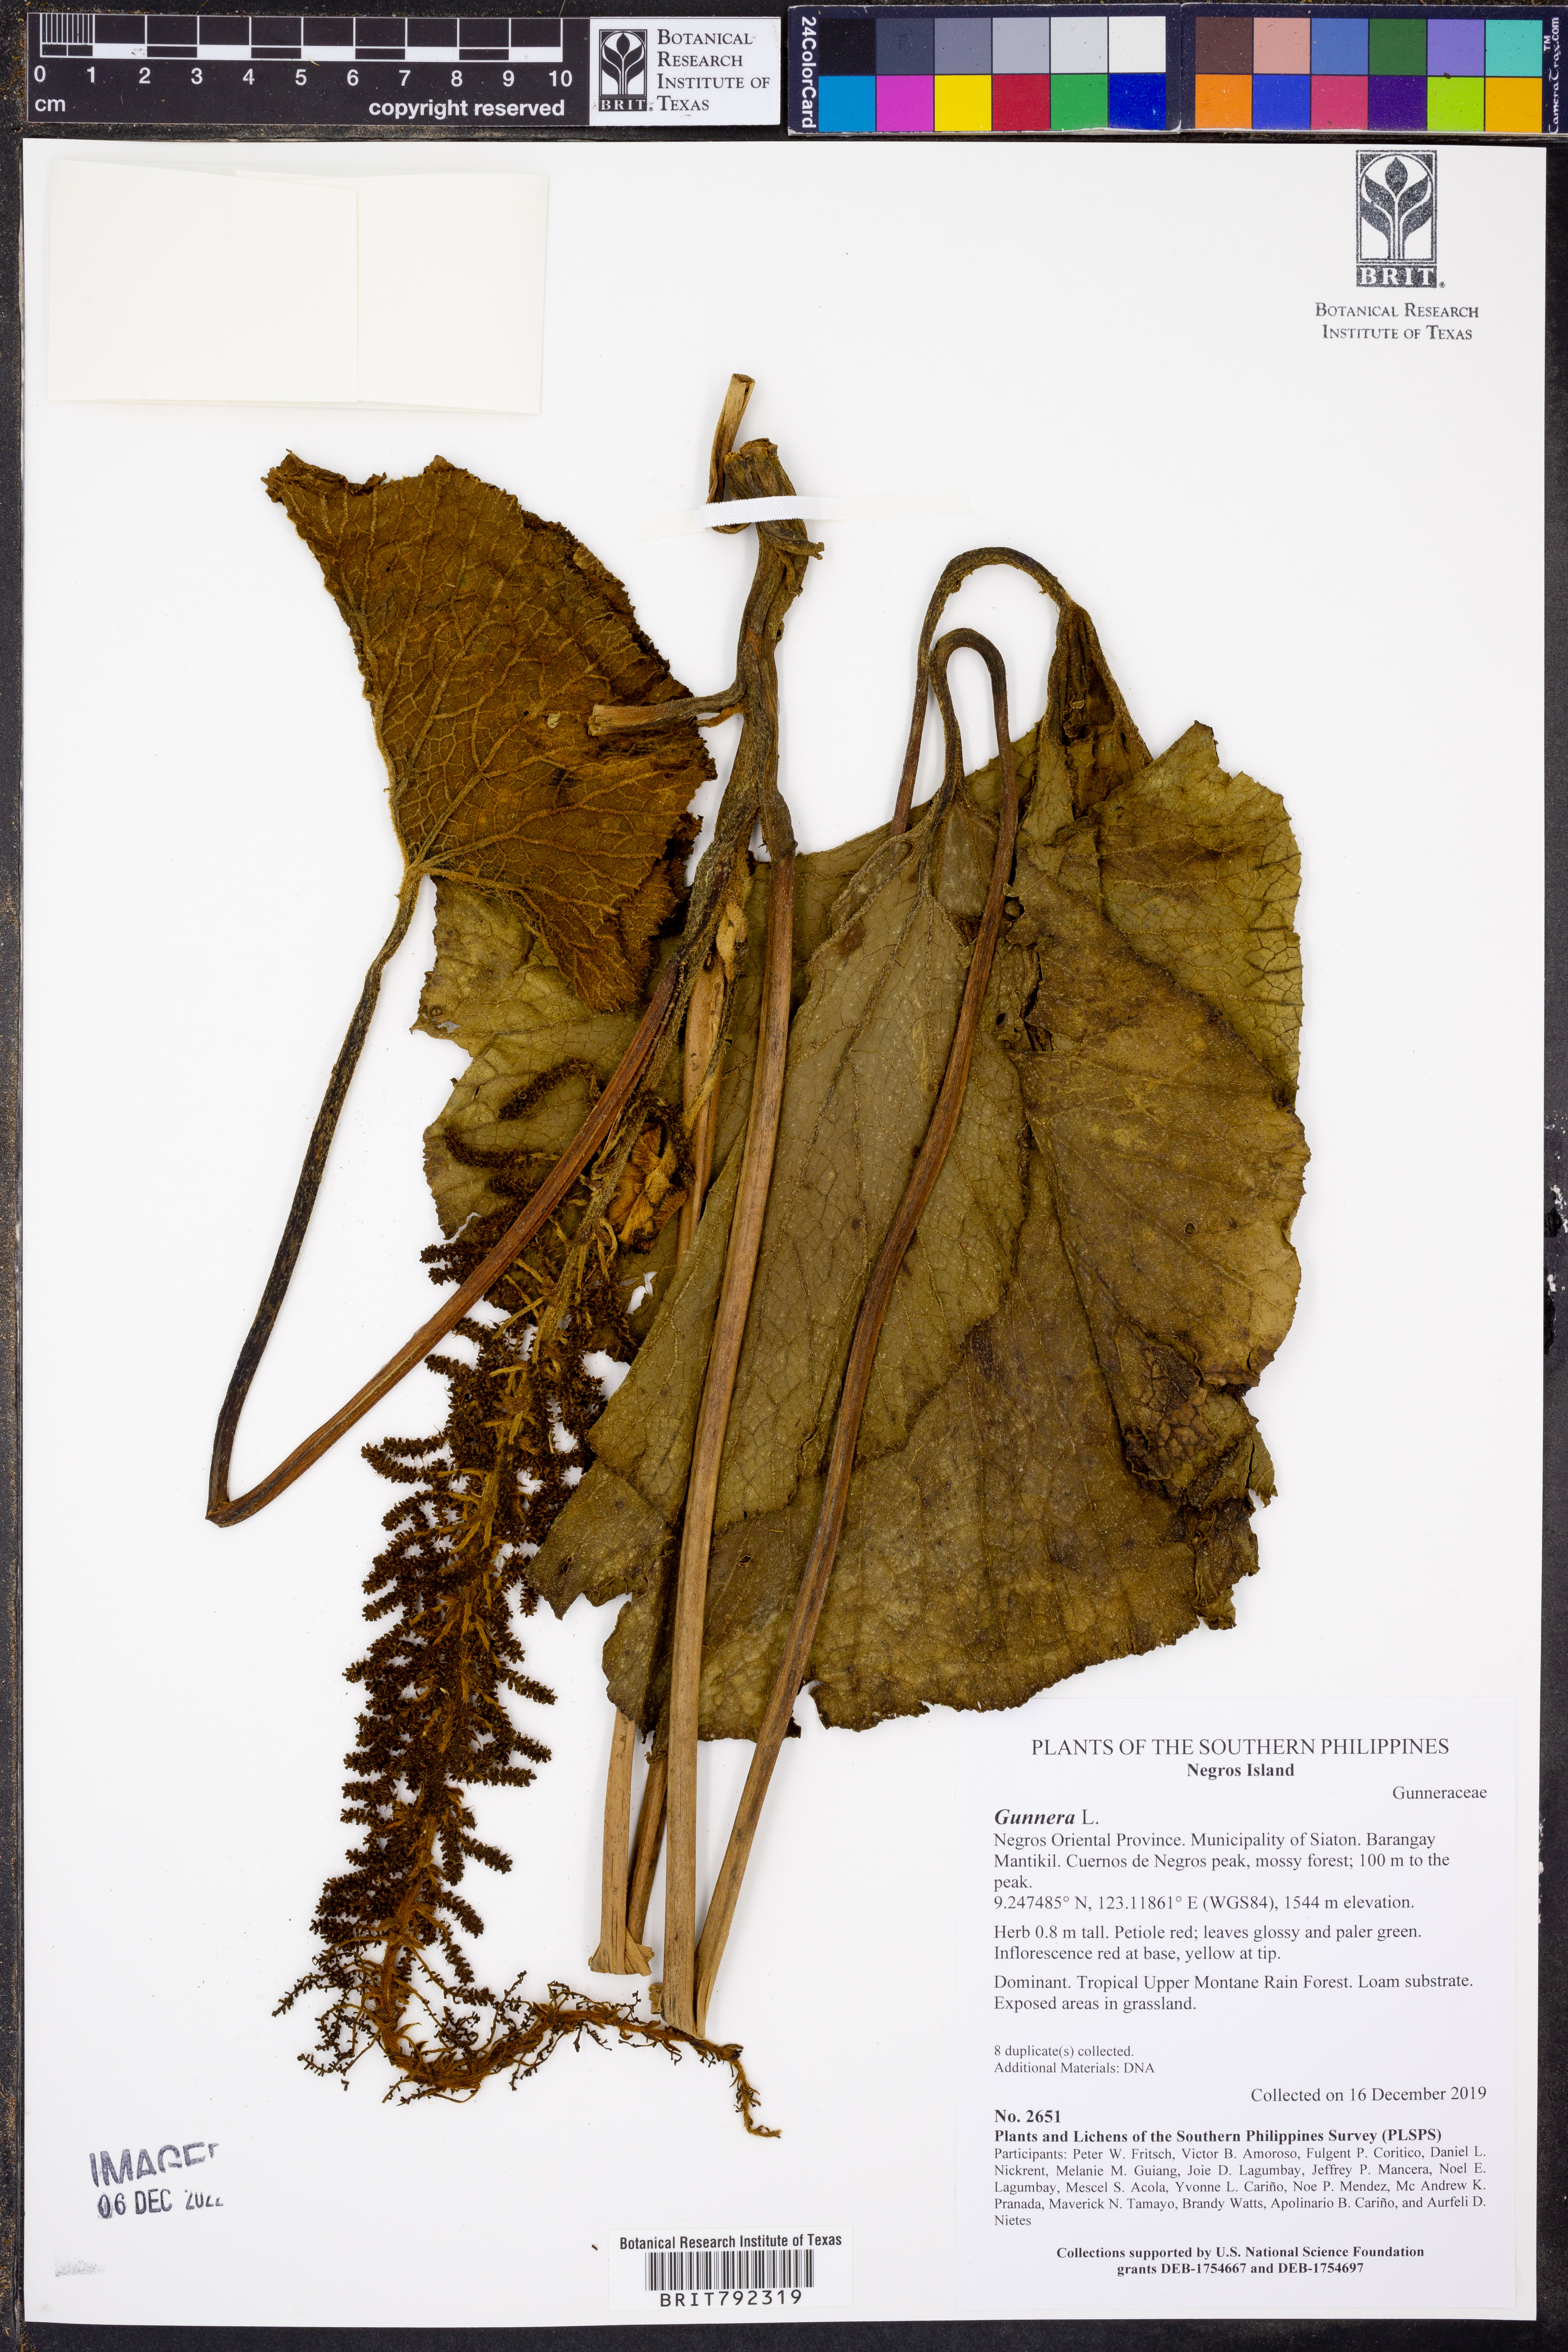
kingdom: Plantae
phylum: Tracheophyta
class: Magnoliopsida
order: Gunnerales
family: Gunneraceae
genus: Gunnera
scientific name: Gunnera
